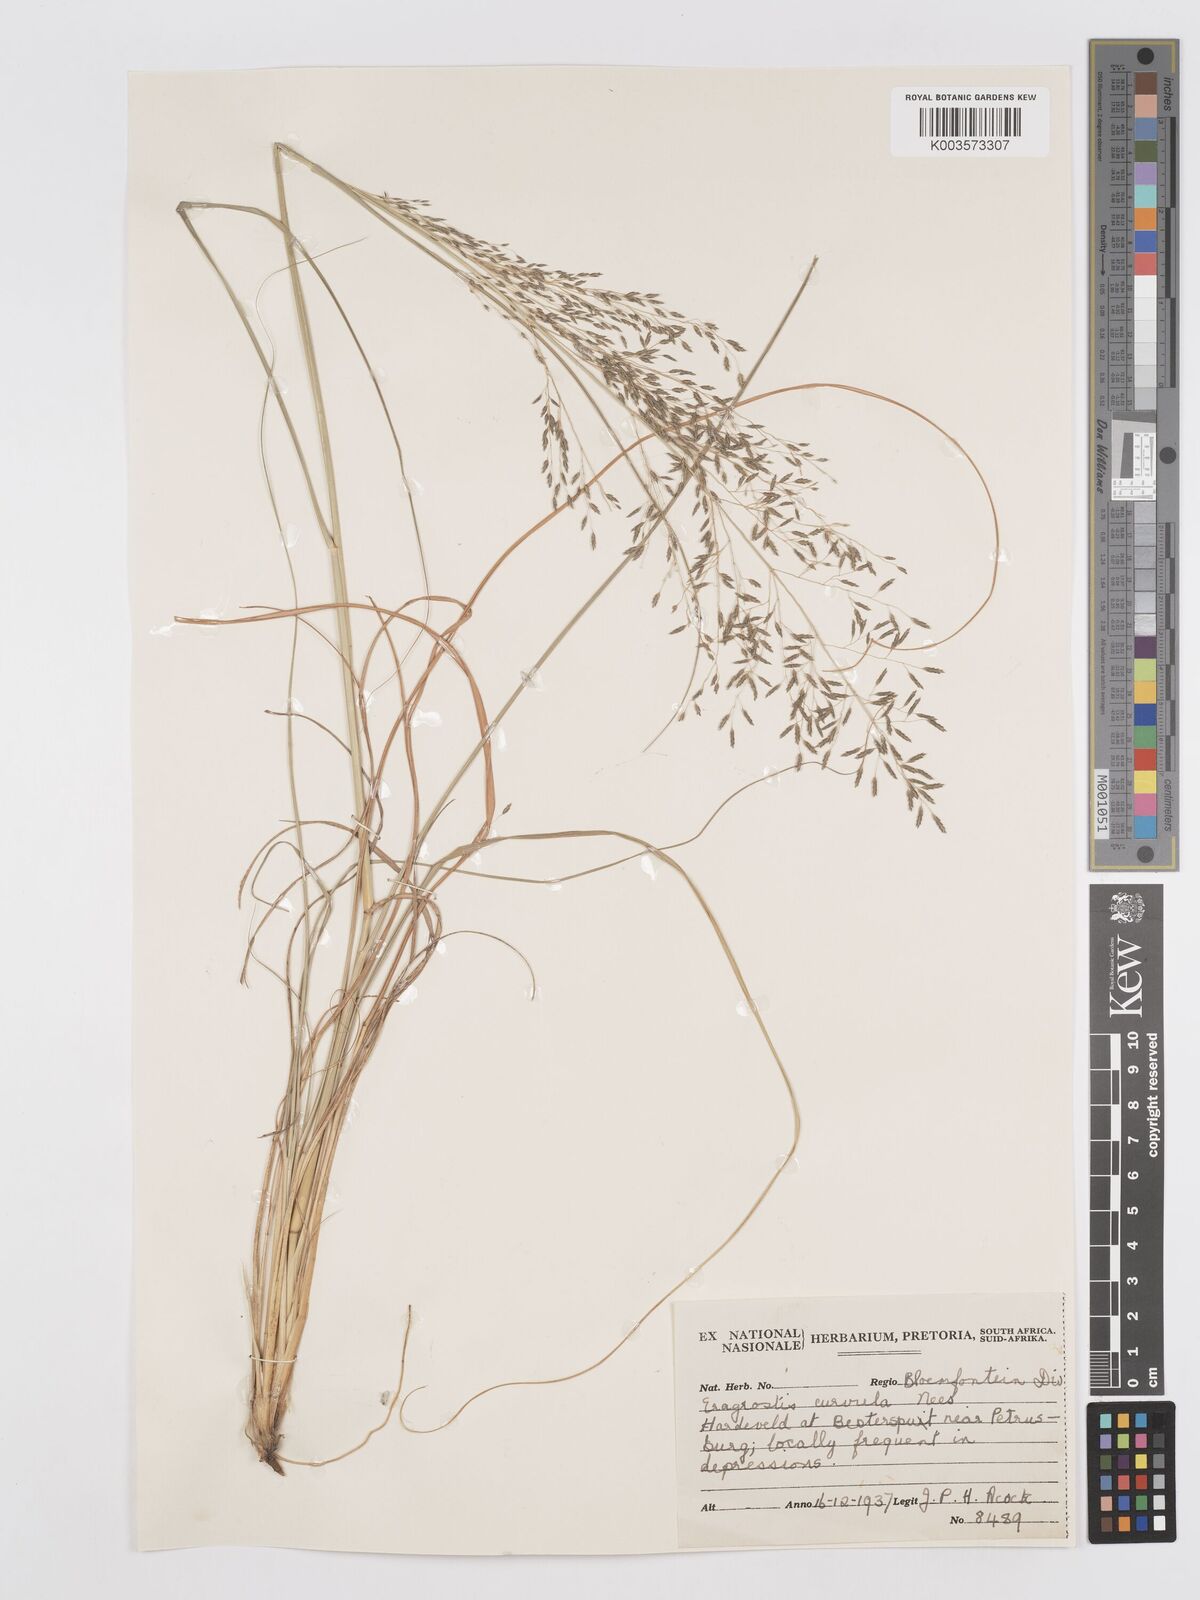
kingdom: Plantae
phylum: Tracheophyta
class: Liliopsida
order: Poales
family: Poaceae
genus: Eragrostis
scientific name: Eragrostis curvula
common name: African love-grass
